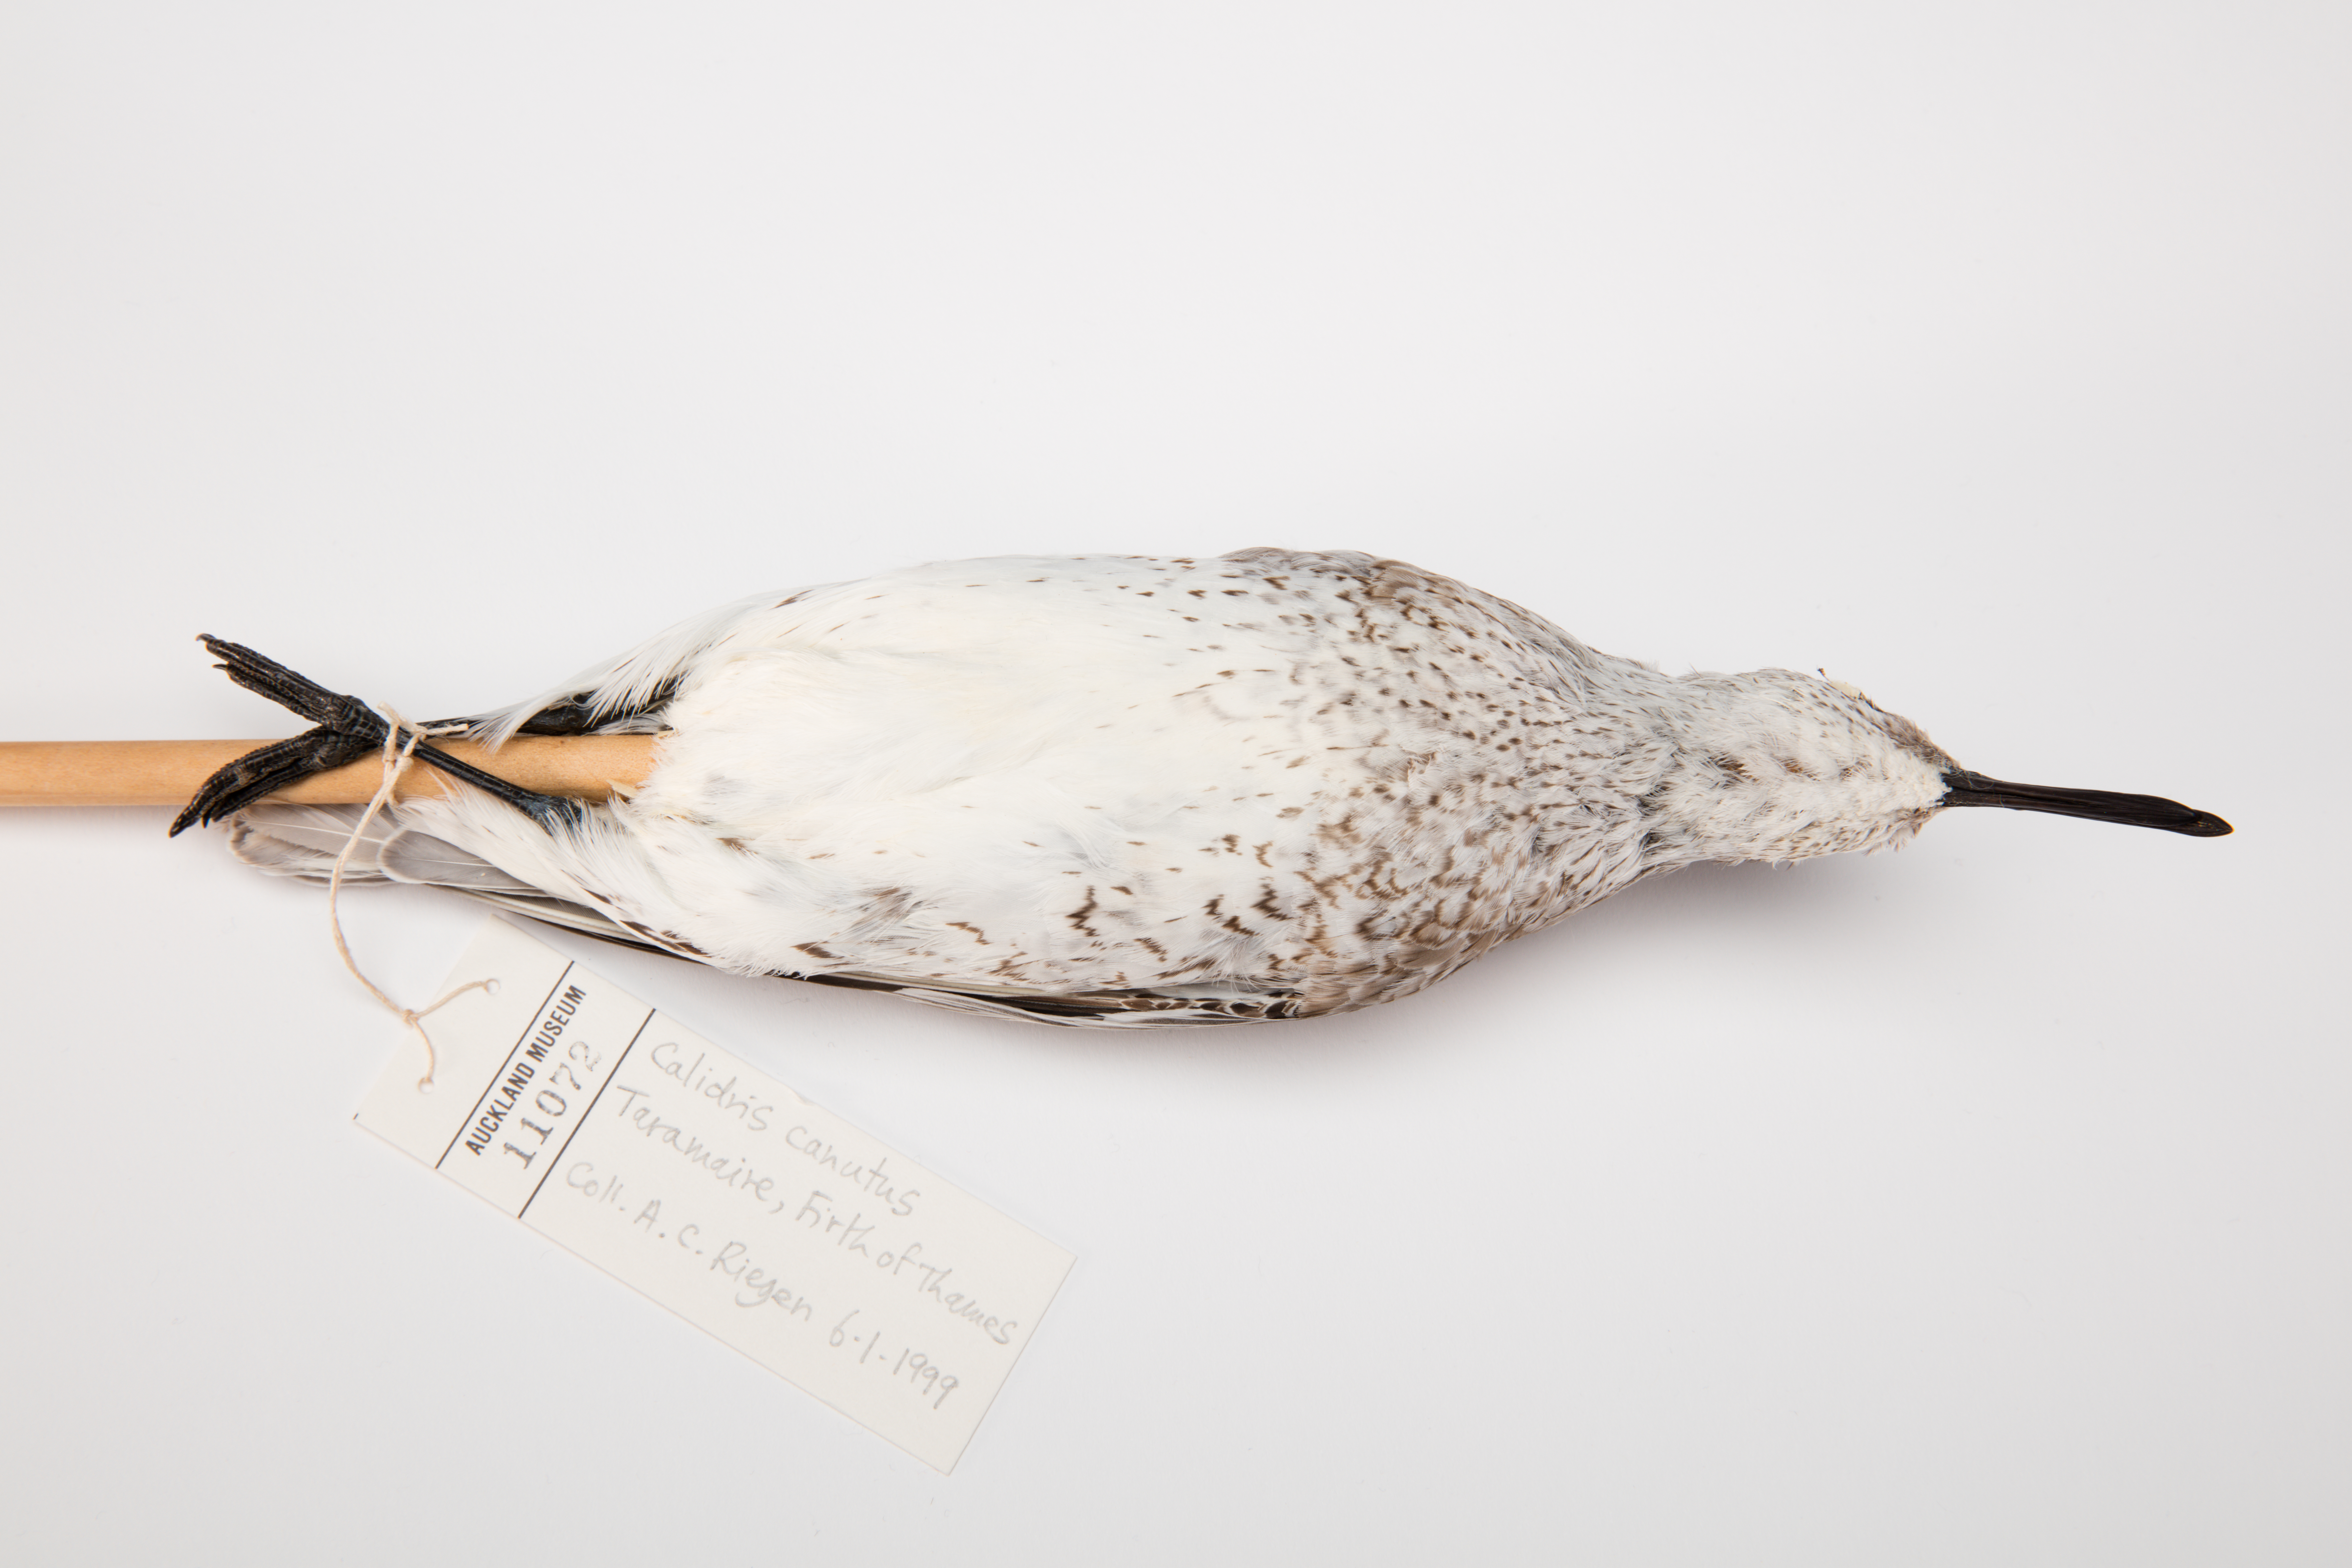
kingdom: Animalia
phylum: Chordata
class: Aves
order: Charadriiformes
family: Scolopacidae
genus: Calidris
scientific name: Calidris canutus
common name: Red knot
